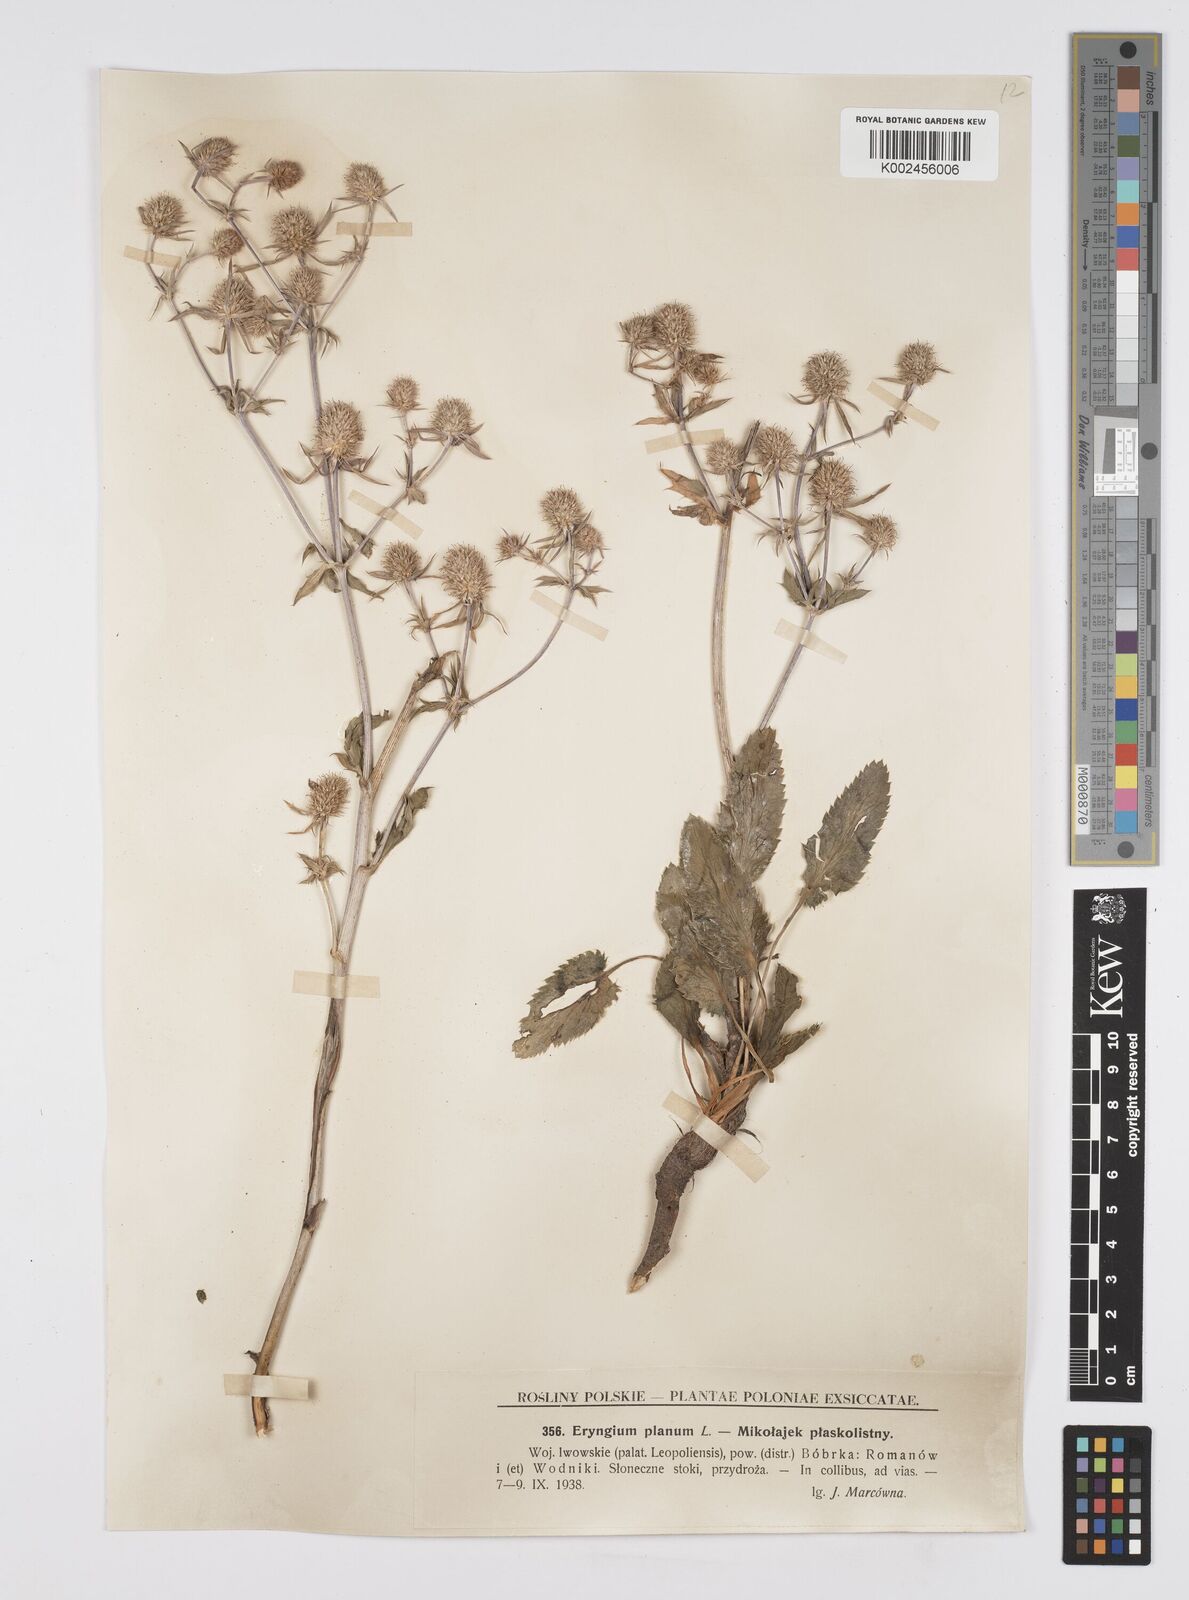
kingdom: Plantae
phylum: Tracheophyta
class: Magnoliopsida
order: Apiales
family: Apiaceae
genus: Eryngium
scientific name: Eryngium planum
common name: Blue eryngo
